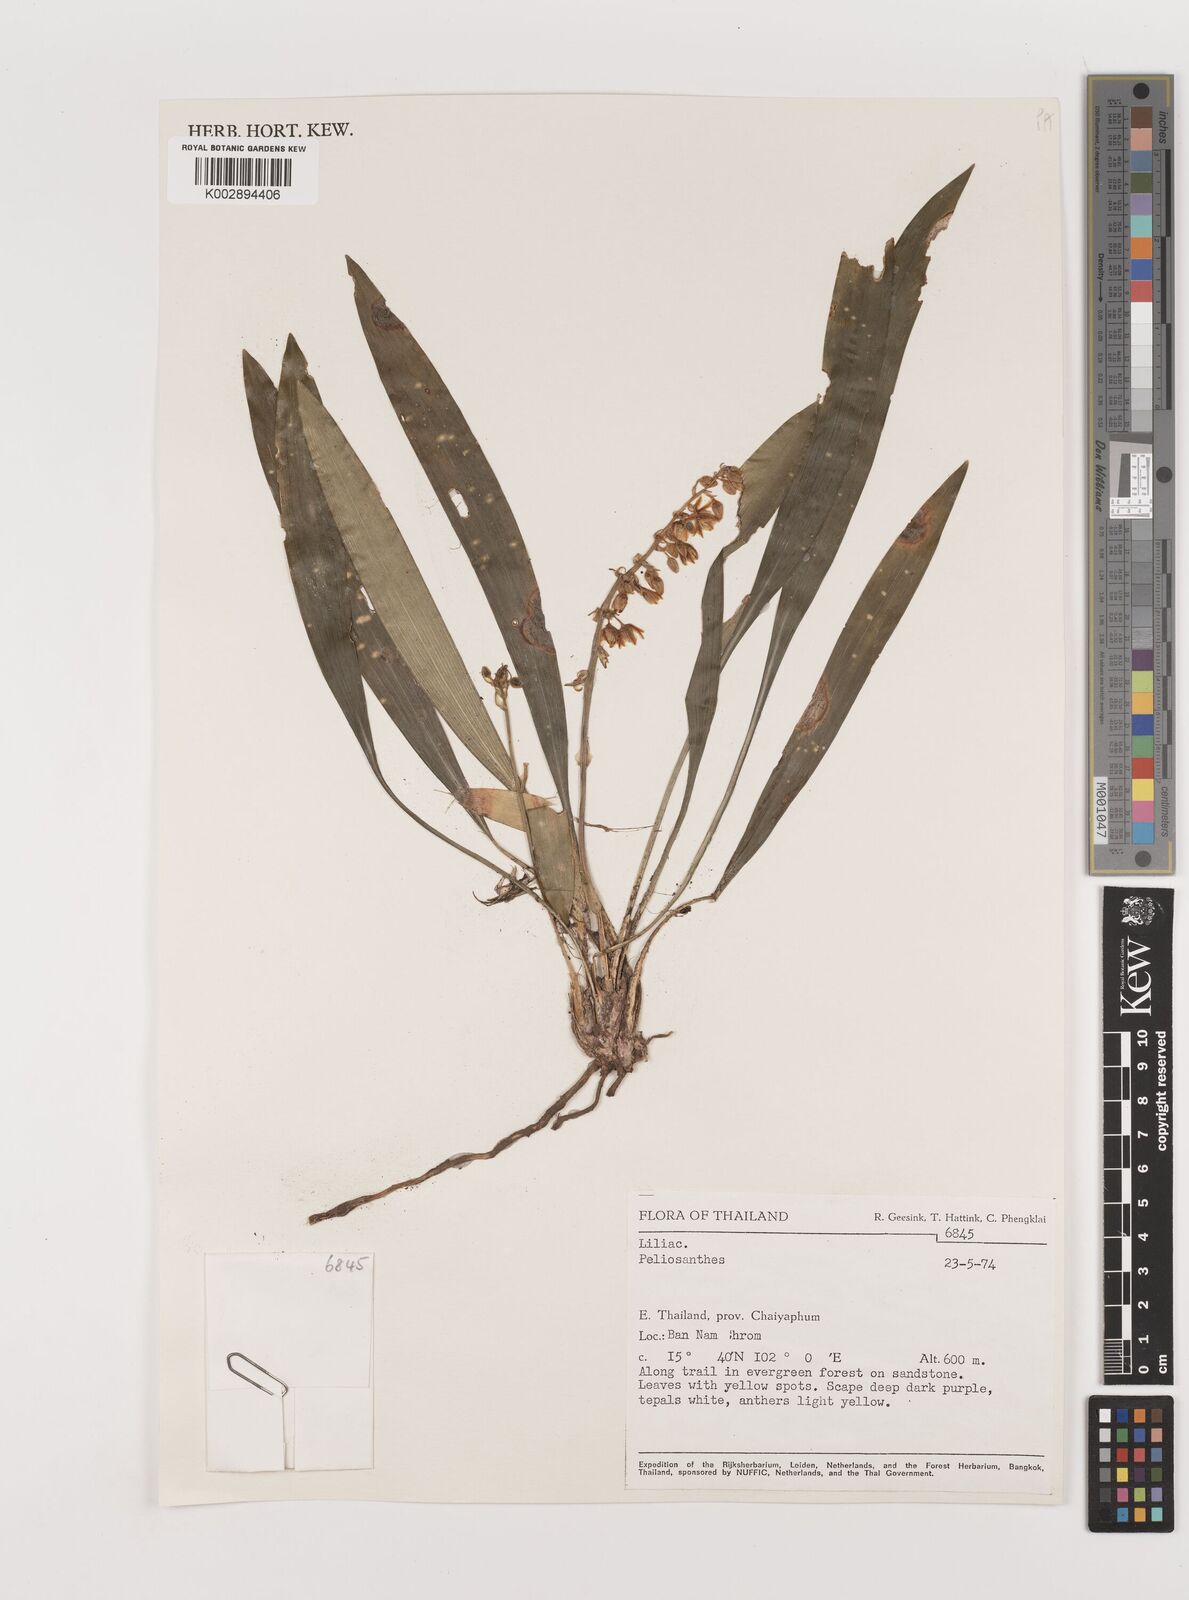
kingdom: Plantae
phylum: Tracheophyta
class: Liliopsida
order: Asparagales
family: Asparagaceae
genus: Peliosanthes
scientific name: Peliosanthes
